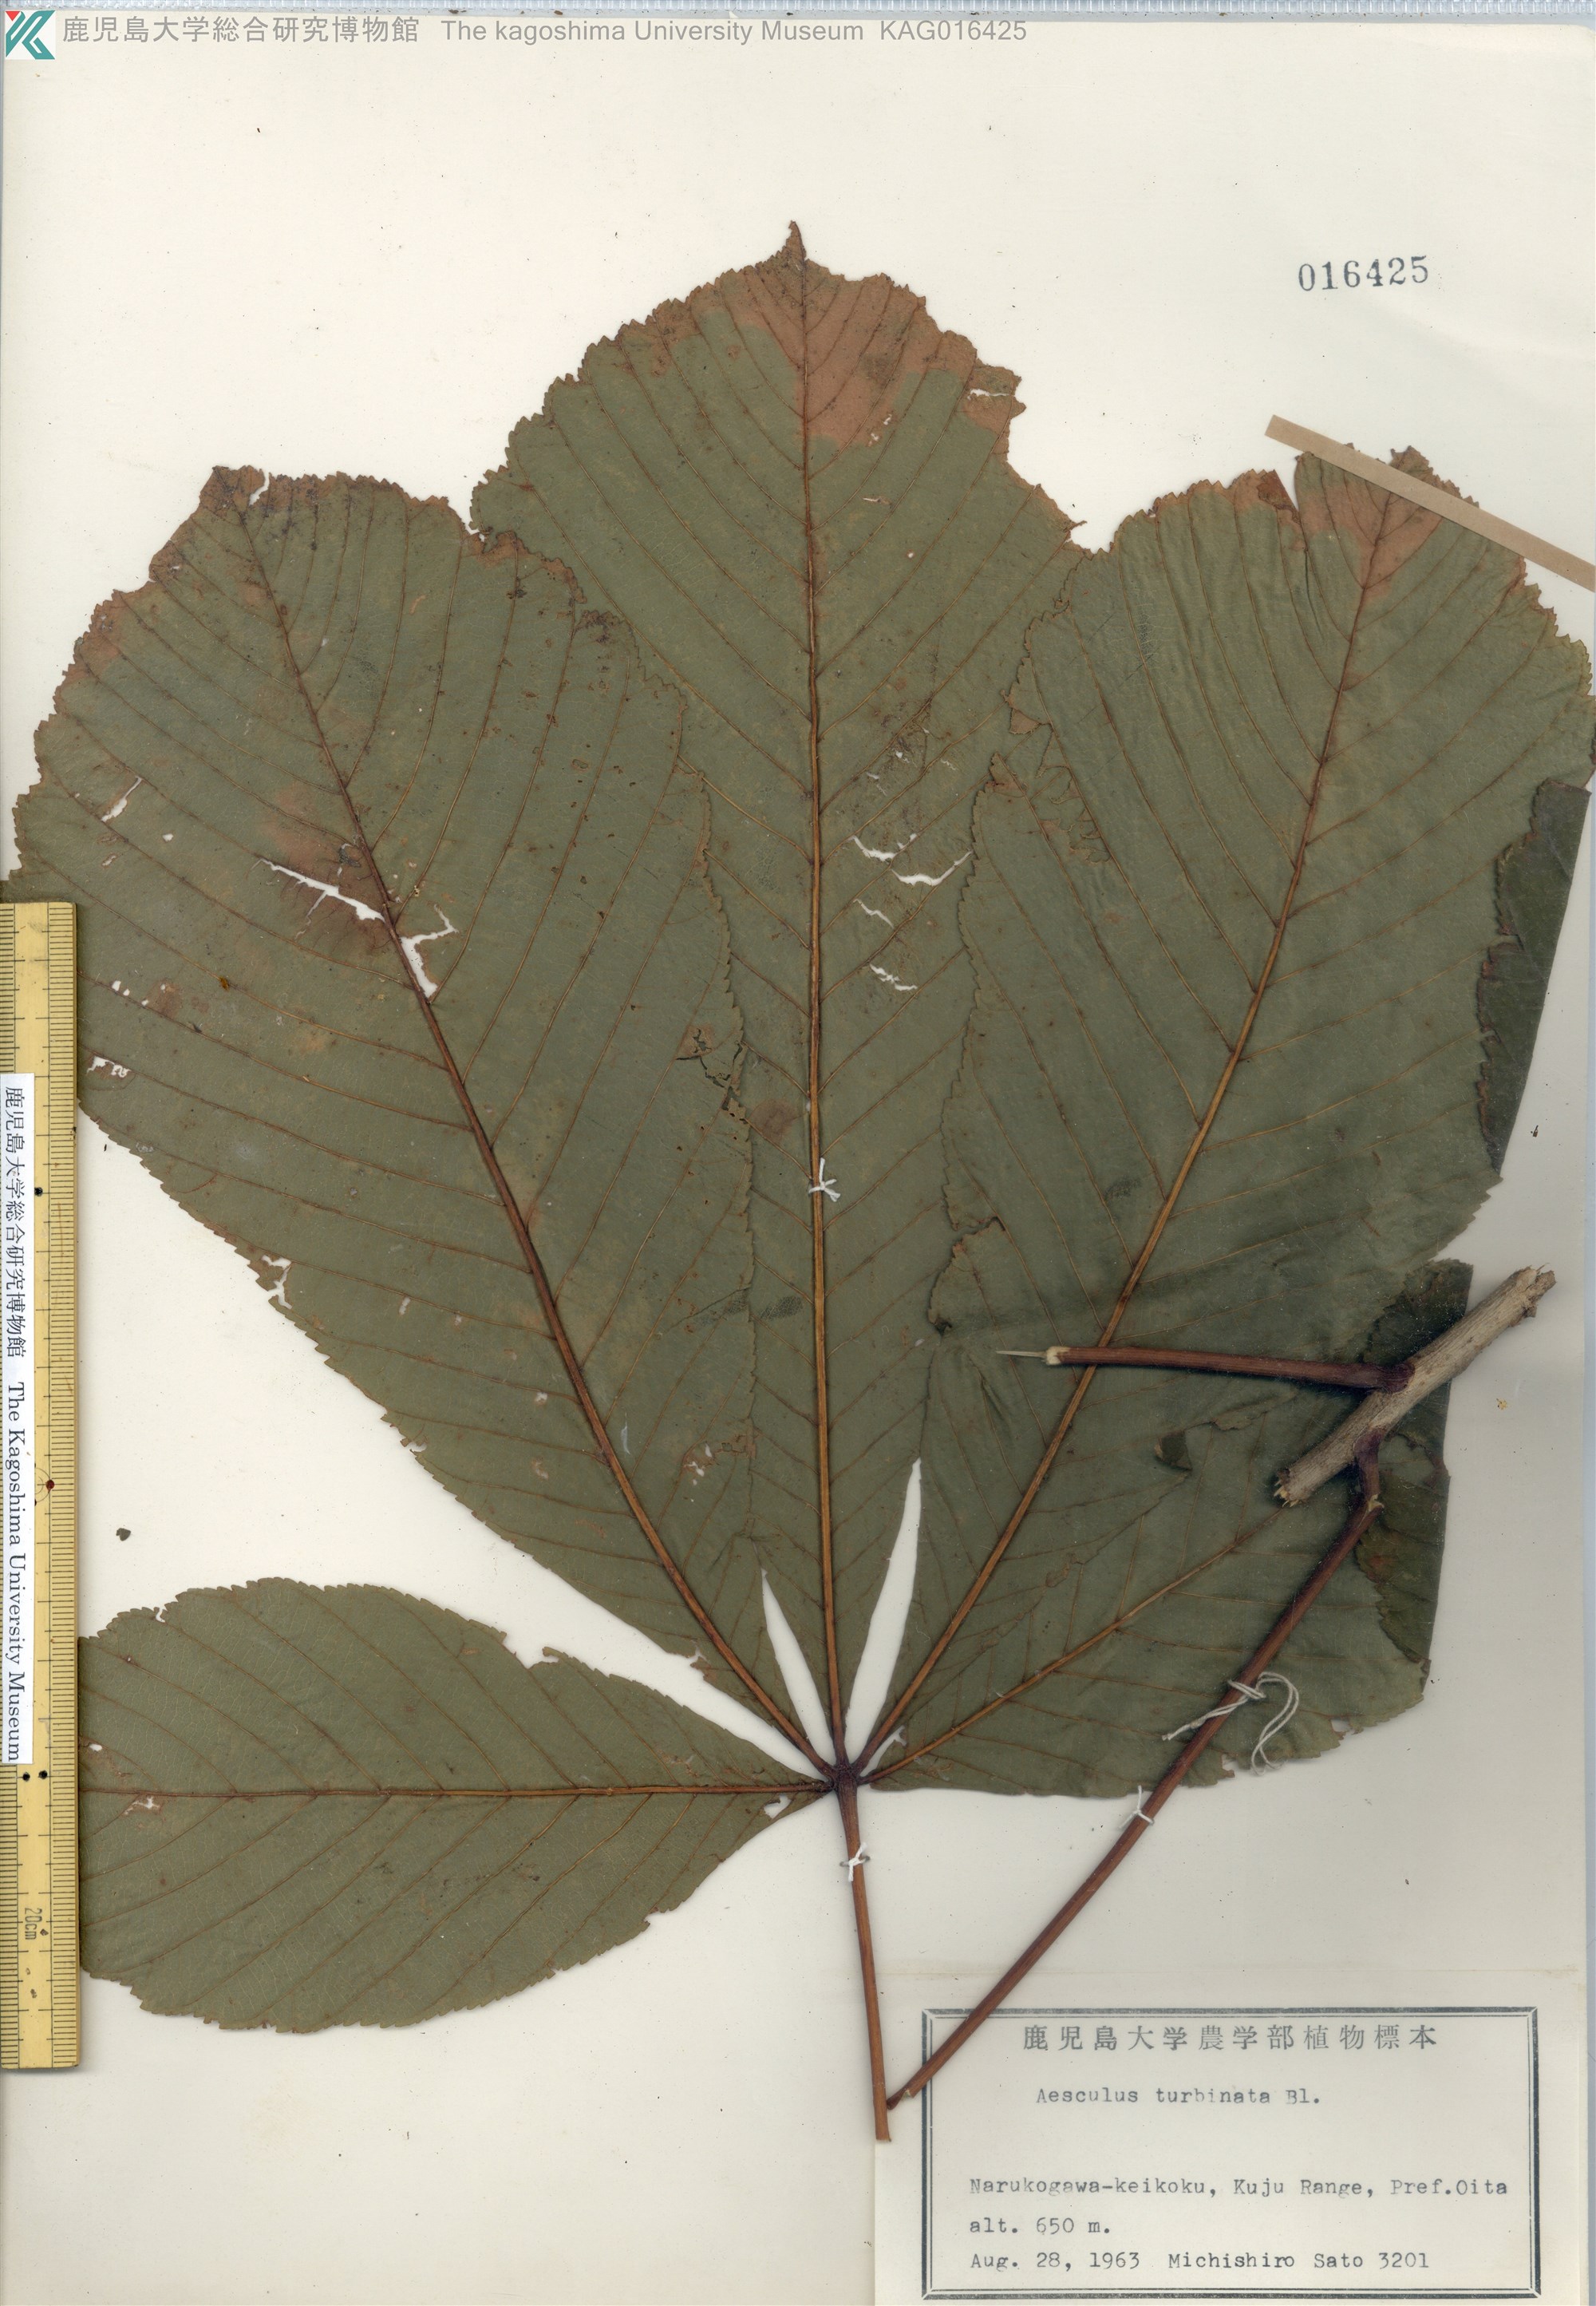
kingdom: Plantae
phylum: Tracheophyta
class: Magnoliopsida
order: Sapindales
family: Sapindaceae
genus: Aesculus
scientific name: Aesculus turbinata
